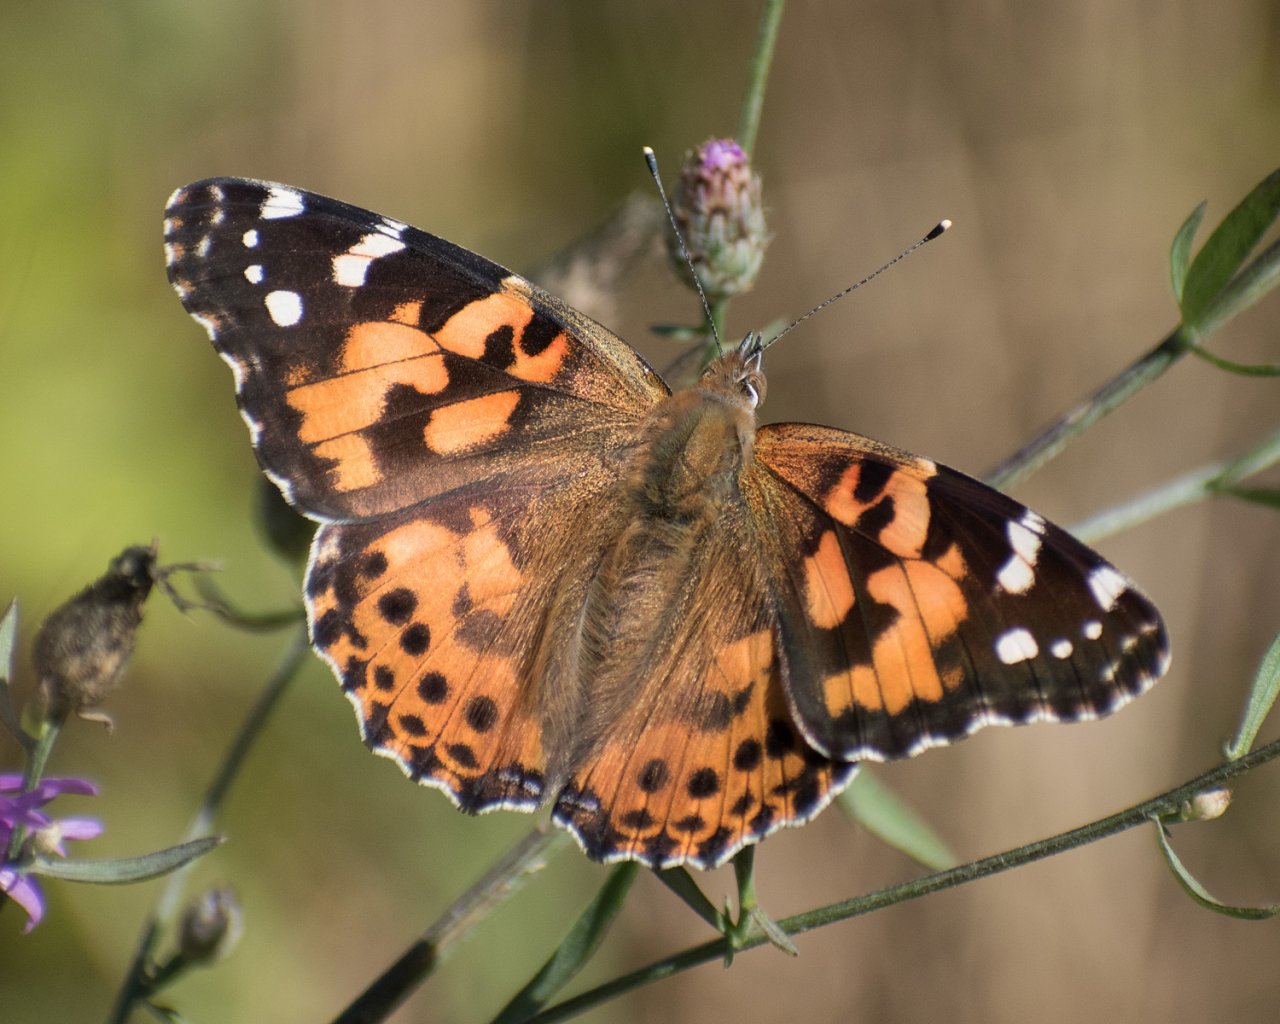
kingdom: Animalia
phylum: Arthropoda
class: Insecta
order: Lepidoptera
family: Nymphalidae
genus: Vanessa
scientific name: Vanessa cardui
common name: Painted Lady
